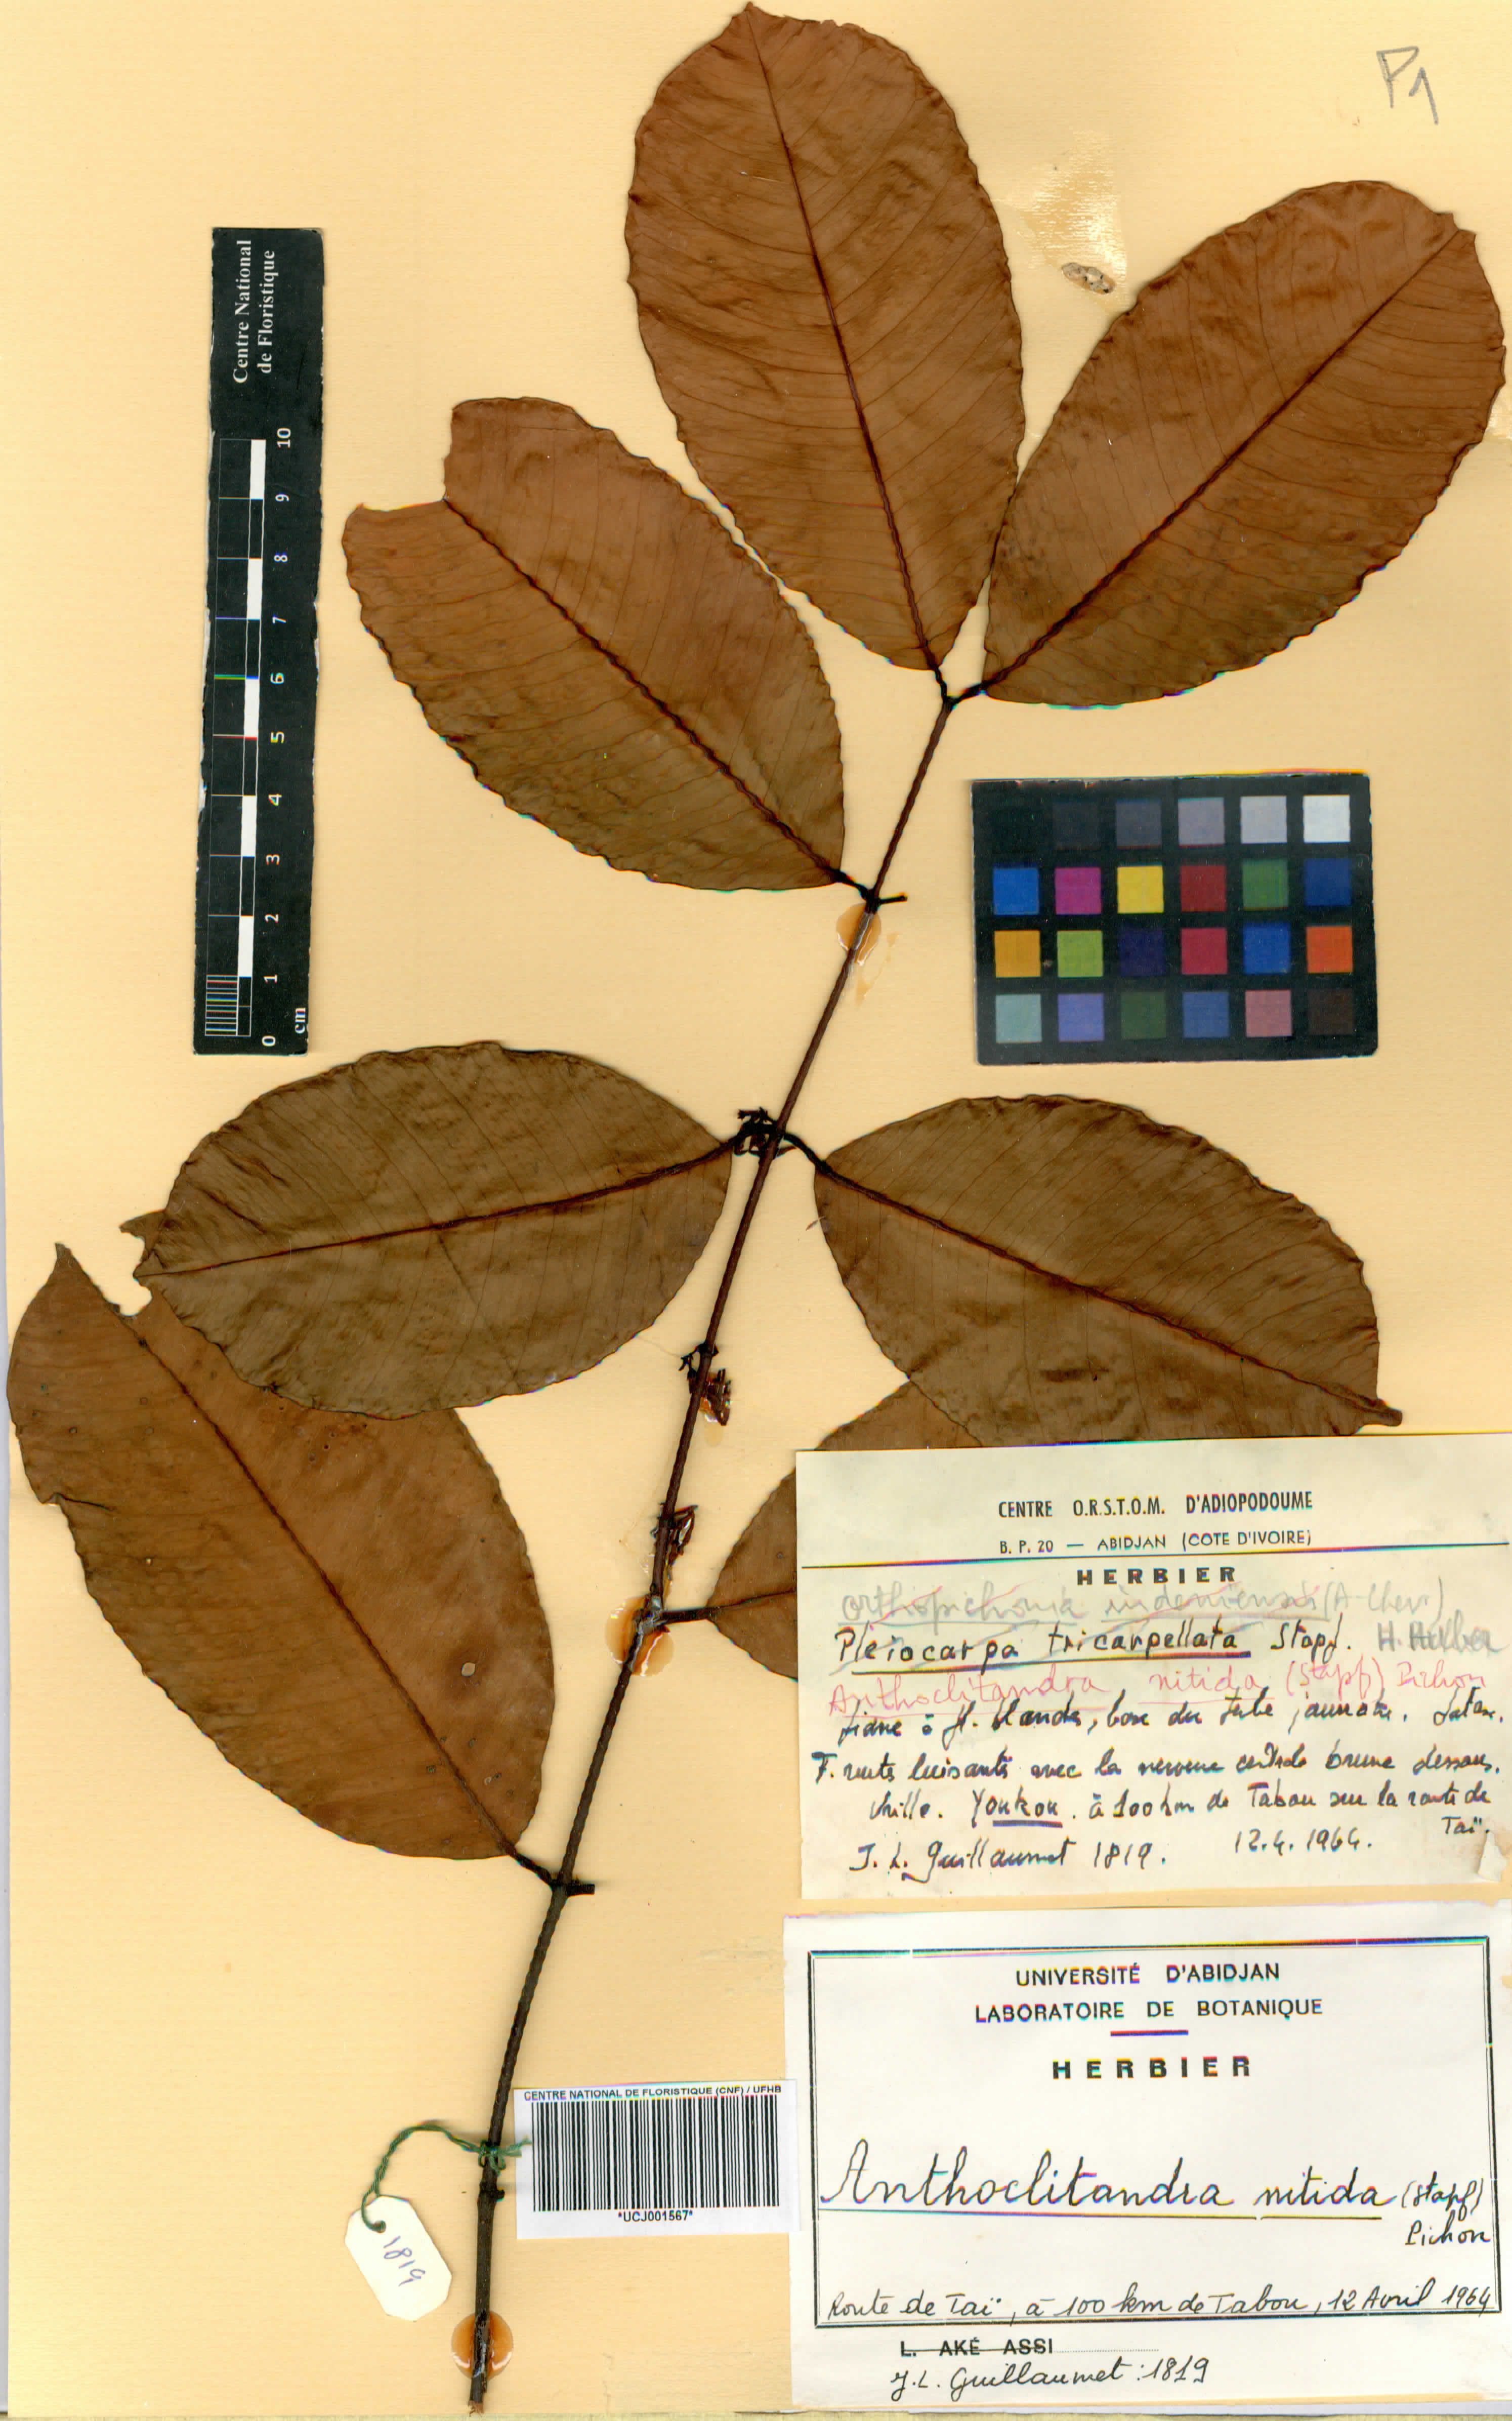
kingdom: Plantae
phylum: Tracheophyta
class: Magnoliopsida
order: Gentianales
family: Apocynaceae
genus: Landolphia
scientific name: Landolphia nitidula
